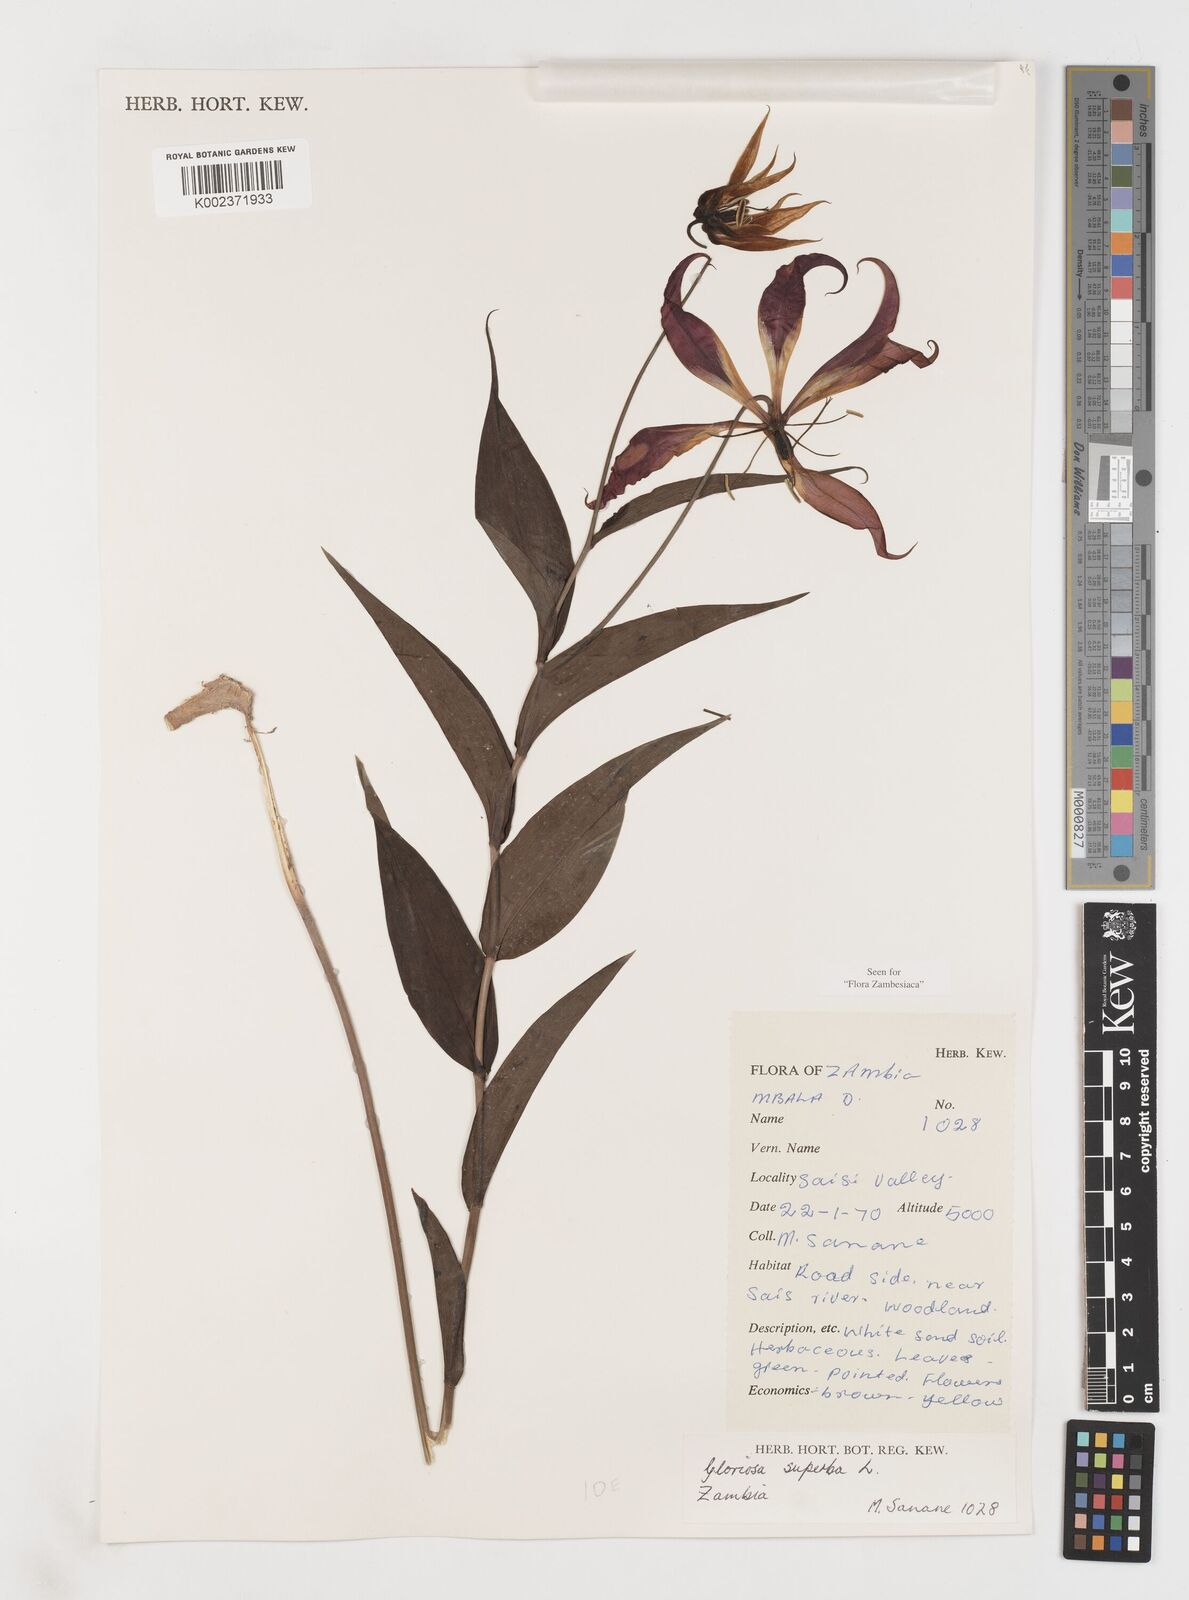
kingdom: Plantae
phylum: Tracheophyta
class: Liliopsida
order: Liliales
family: Colchicaceae
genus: Gloriosa
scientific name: Gloriosa simplex
